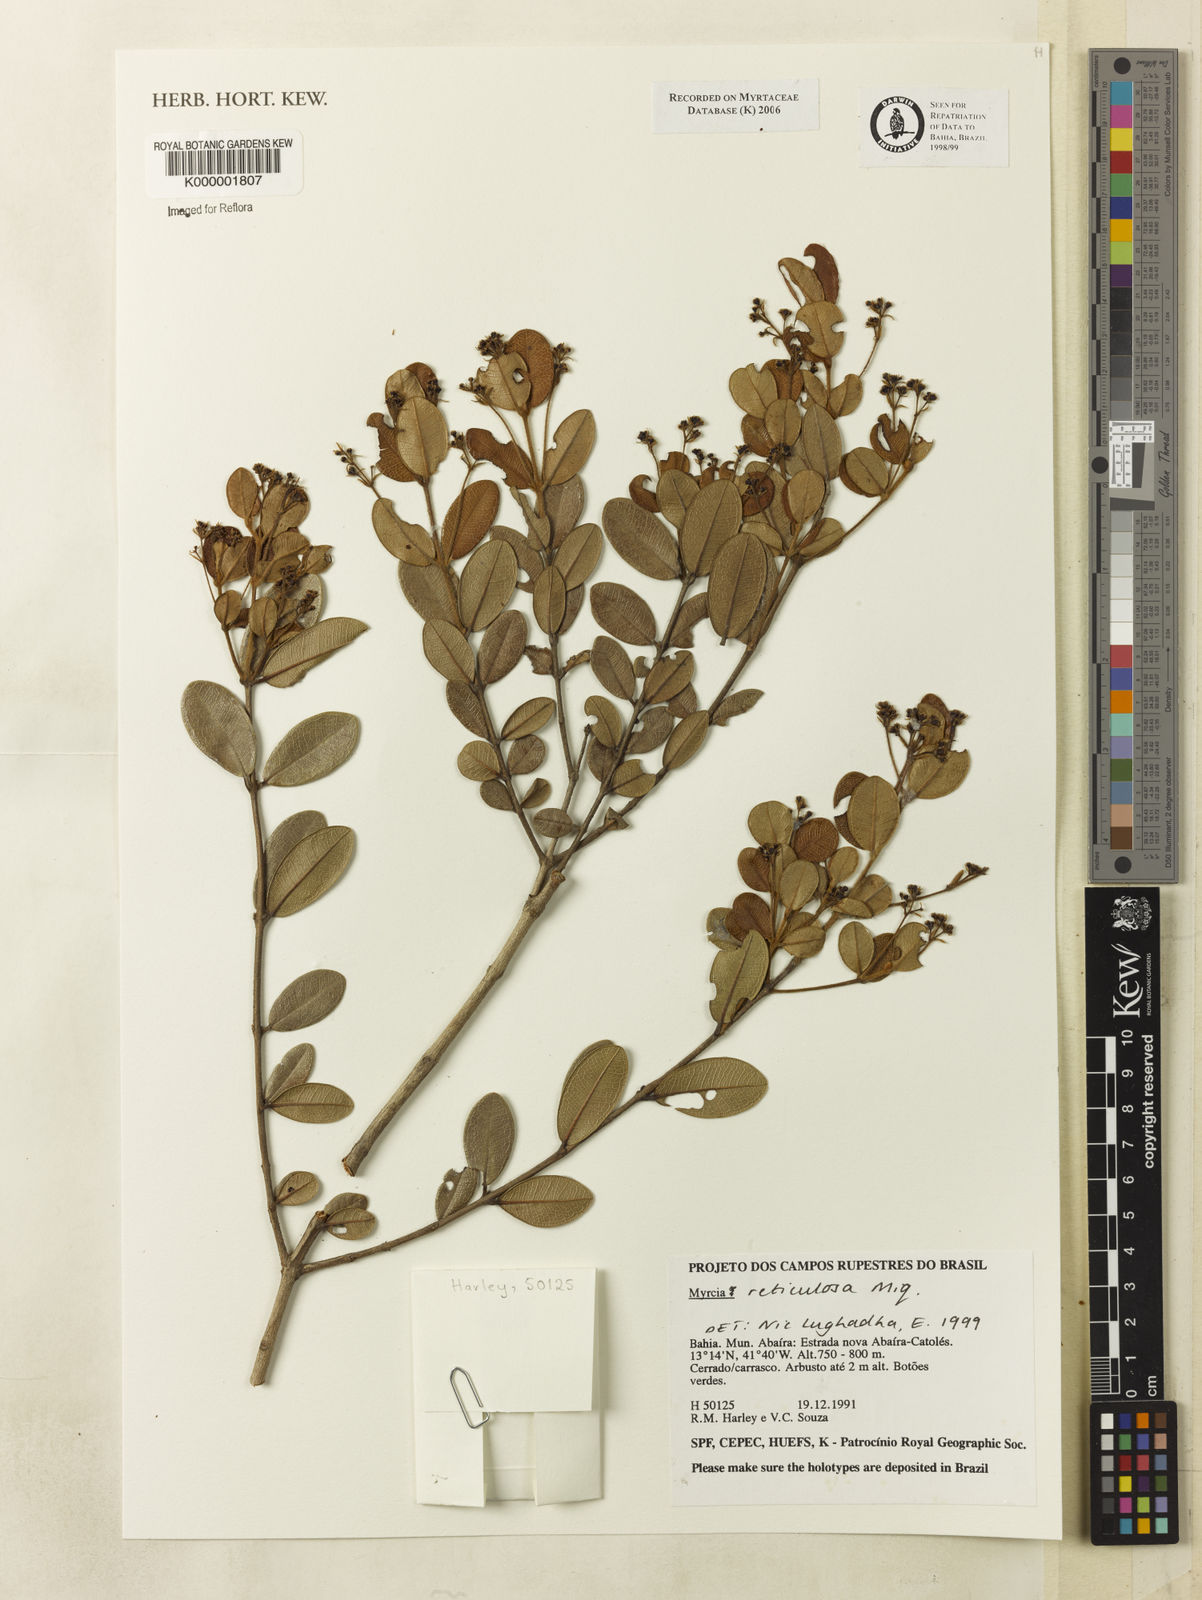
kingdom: Plantae
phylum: Tracheophyta
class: Magnoliopsida
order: Myrtales
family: Myrtaceae
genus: Eugenia
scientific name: Eugenia
